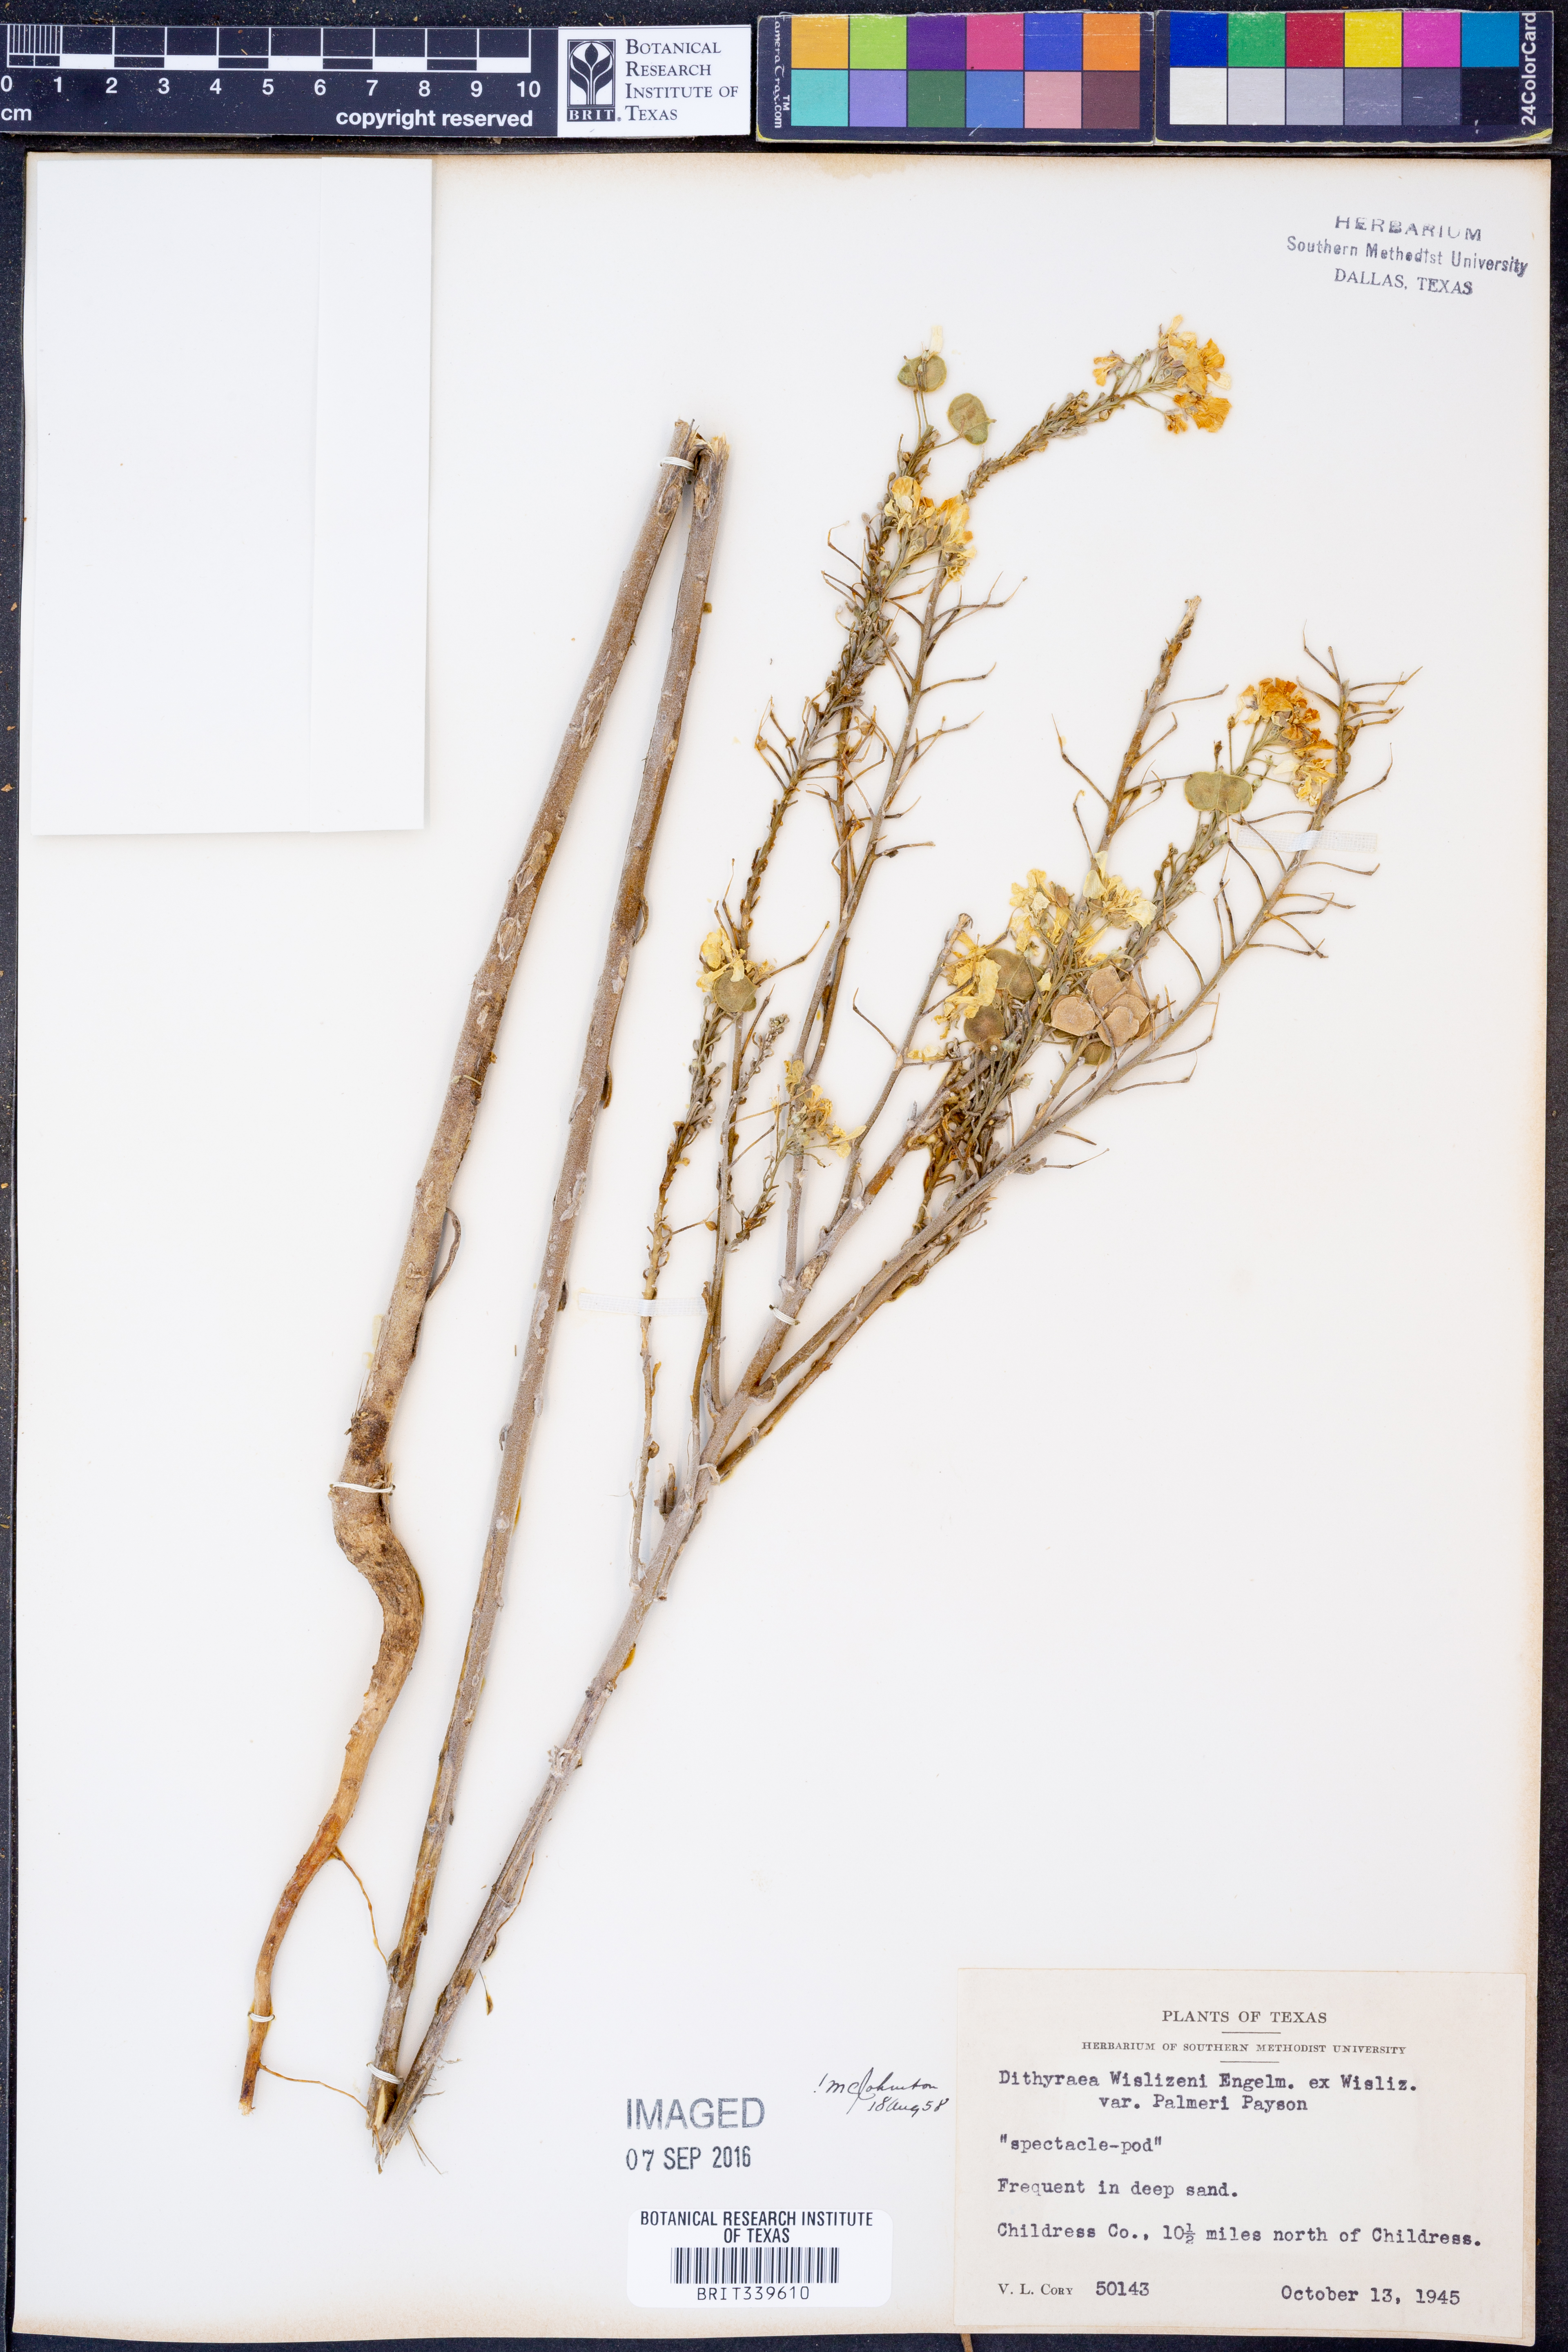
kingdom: Plantae
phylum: Tracheophyta
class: Magnoliopsida
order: Brassicales
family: Brassicaceae
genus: Dimorphocarpa
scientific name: Dimorphocarpa candicans
